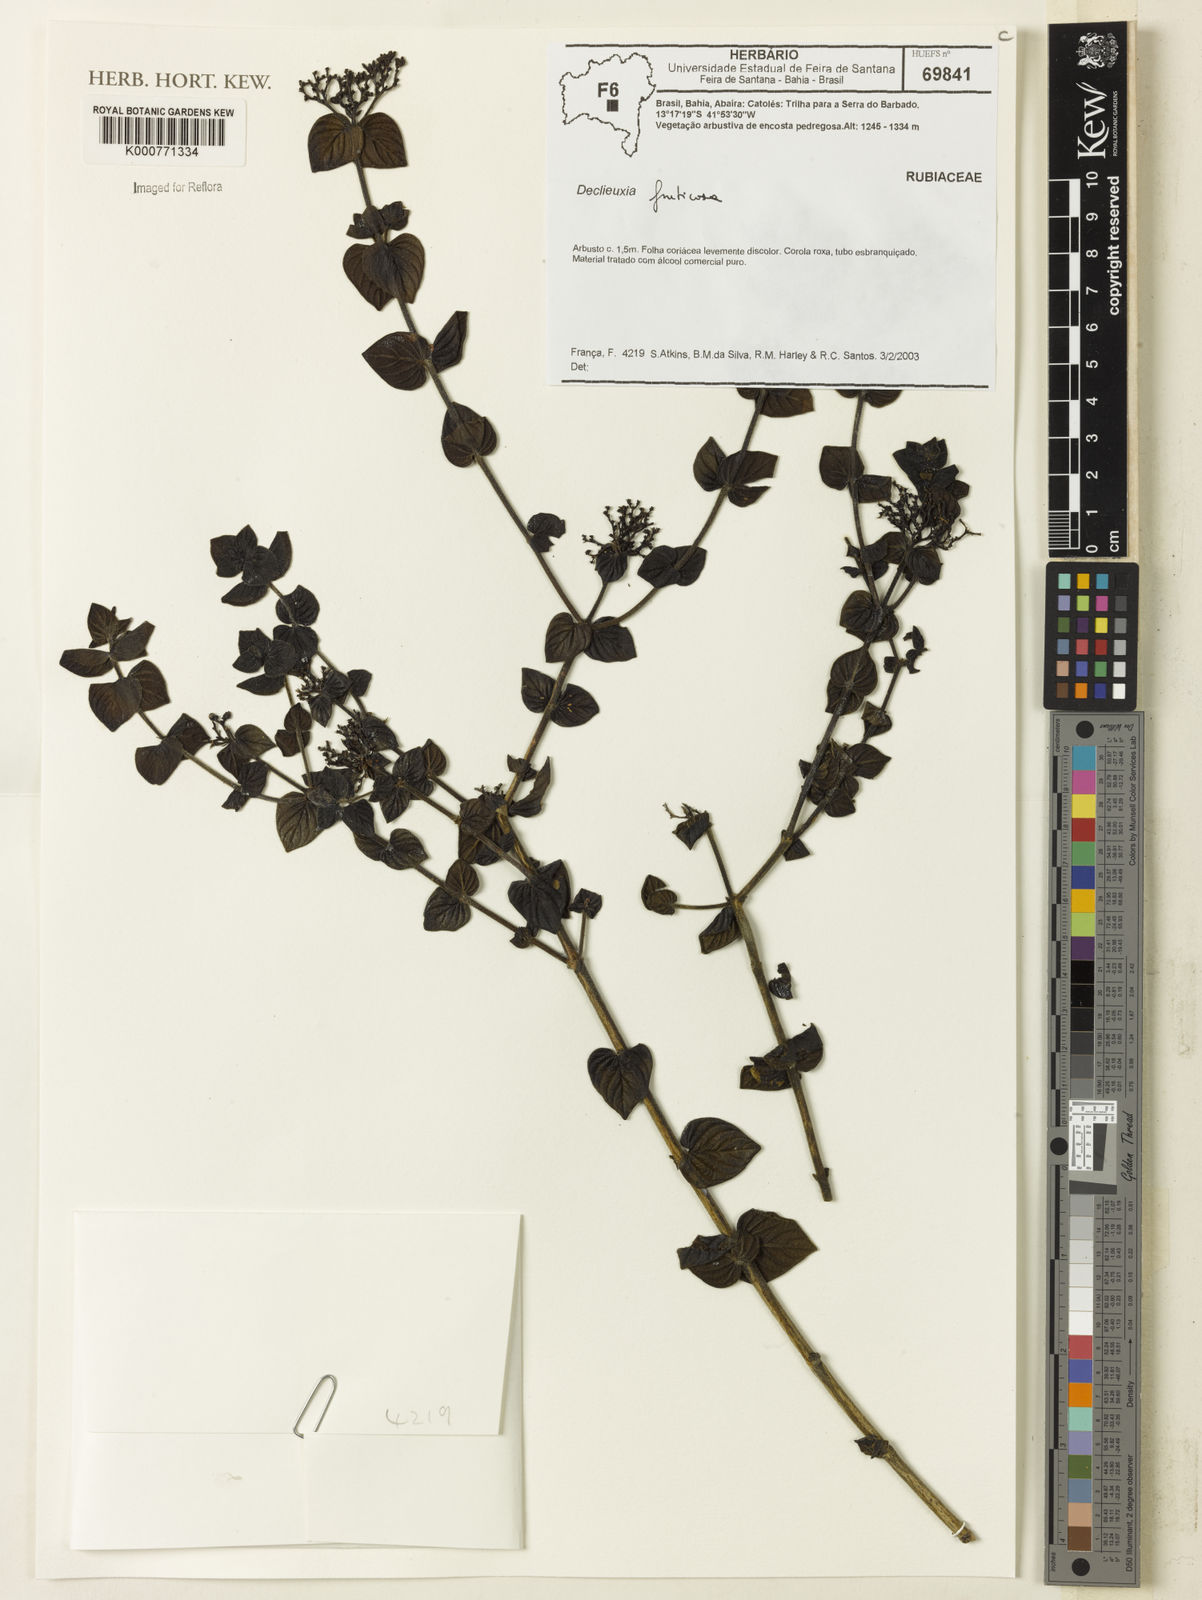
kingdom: Plantae
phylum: Tracheophyta
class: Magnoliopsida
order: Gentianales
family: Rubiaceae
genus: Declieuxia
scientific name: Declieuxia fruticosa
